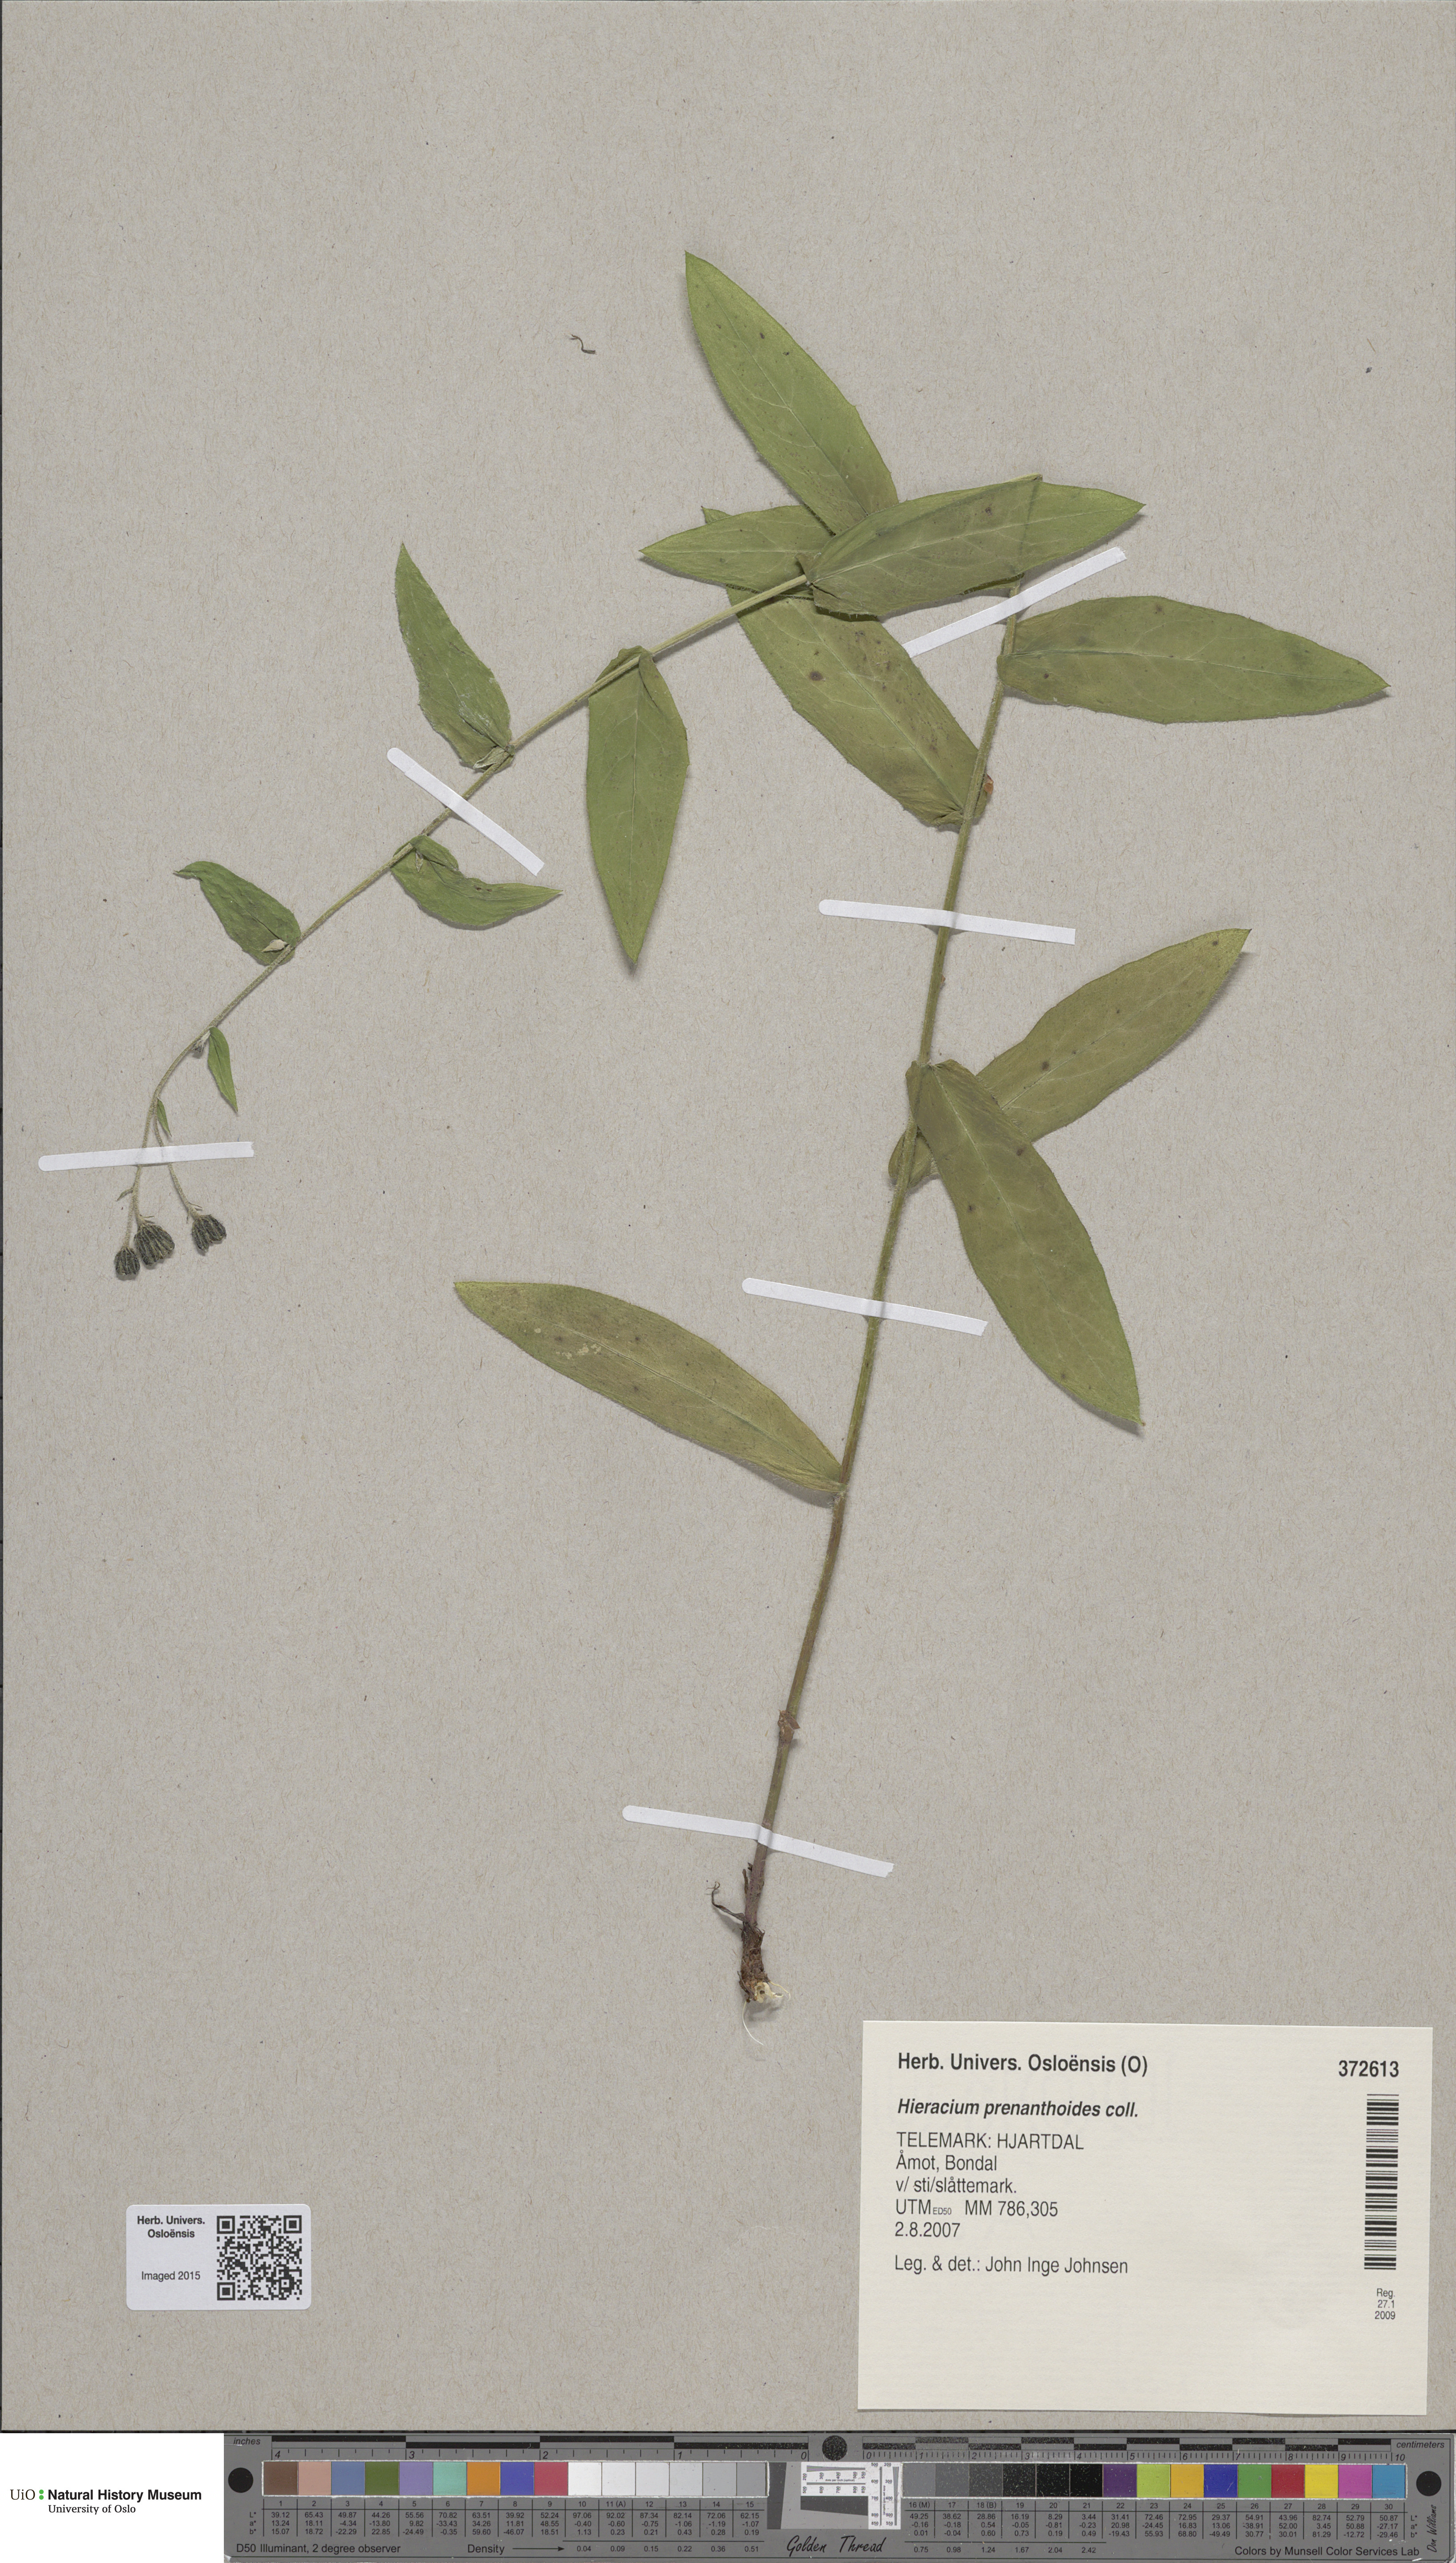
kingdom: Plantae
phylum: Tracheophyta
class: Magnoliopsida
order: Asterales
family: Asteraceae
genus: Hieracium
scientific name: Hieracium prenanthoides
